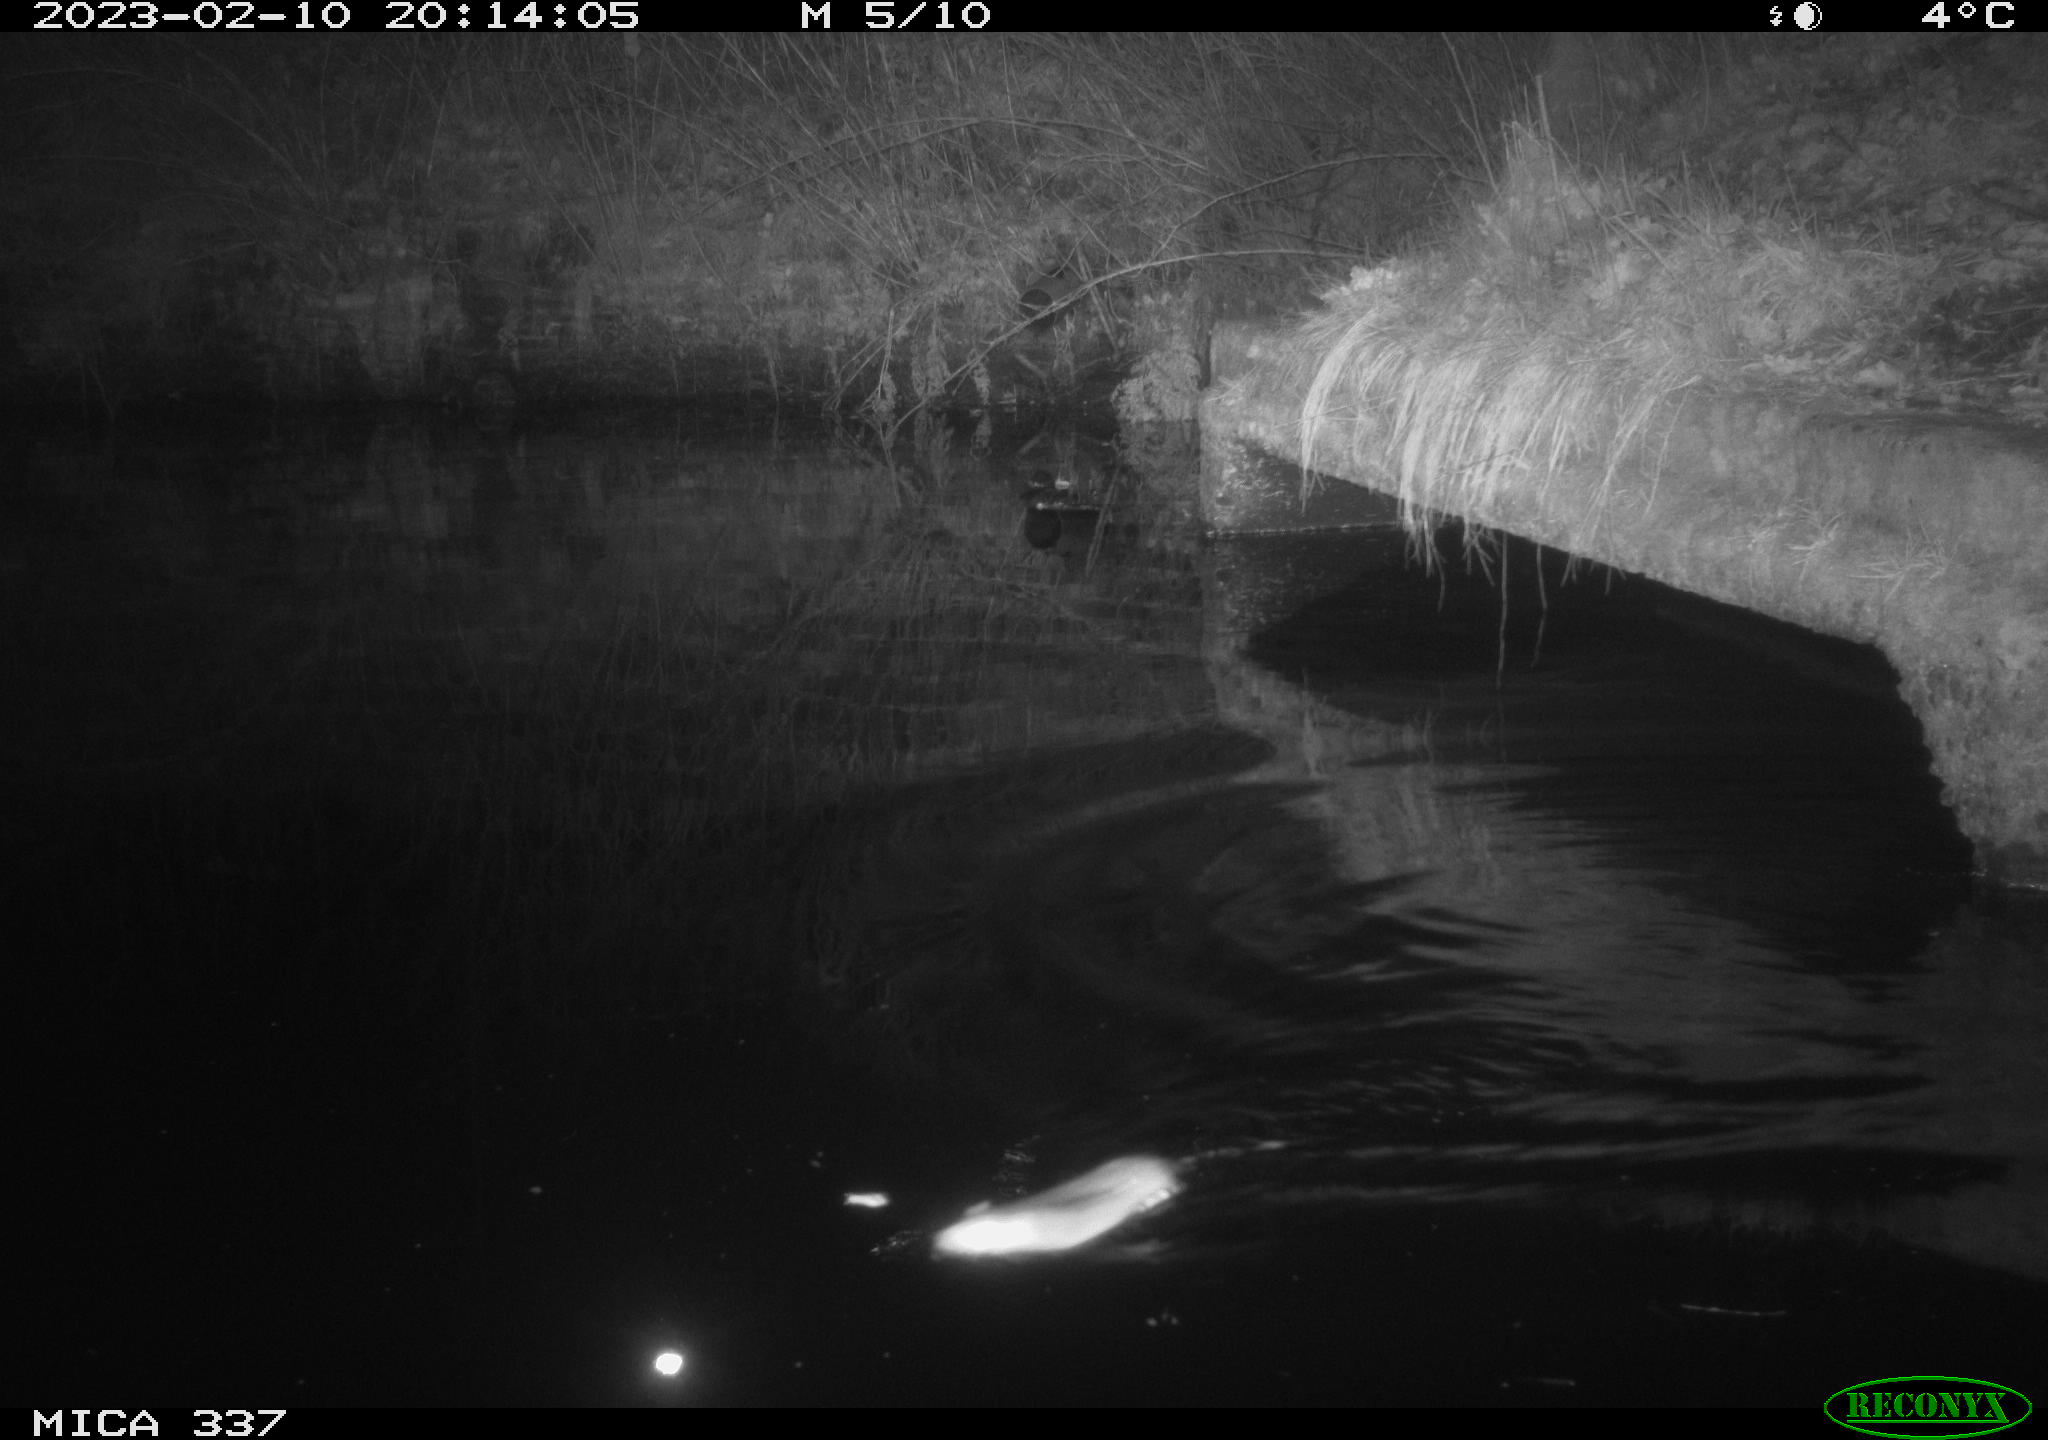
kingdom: Animalia
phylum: Chordata
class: Mammalia
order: Rodentia
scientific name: Rodentia
